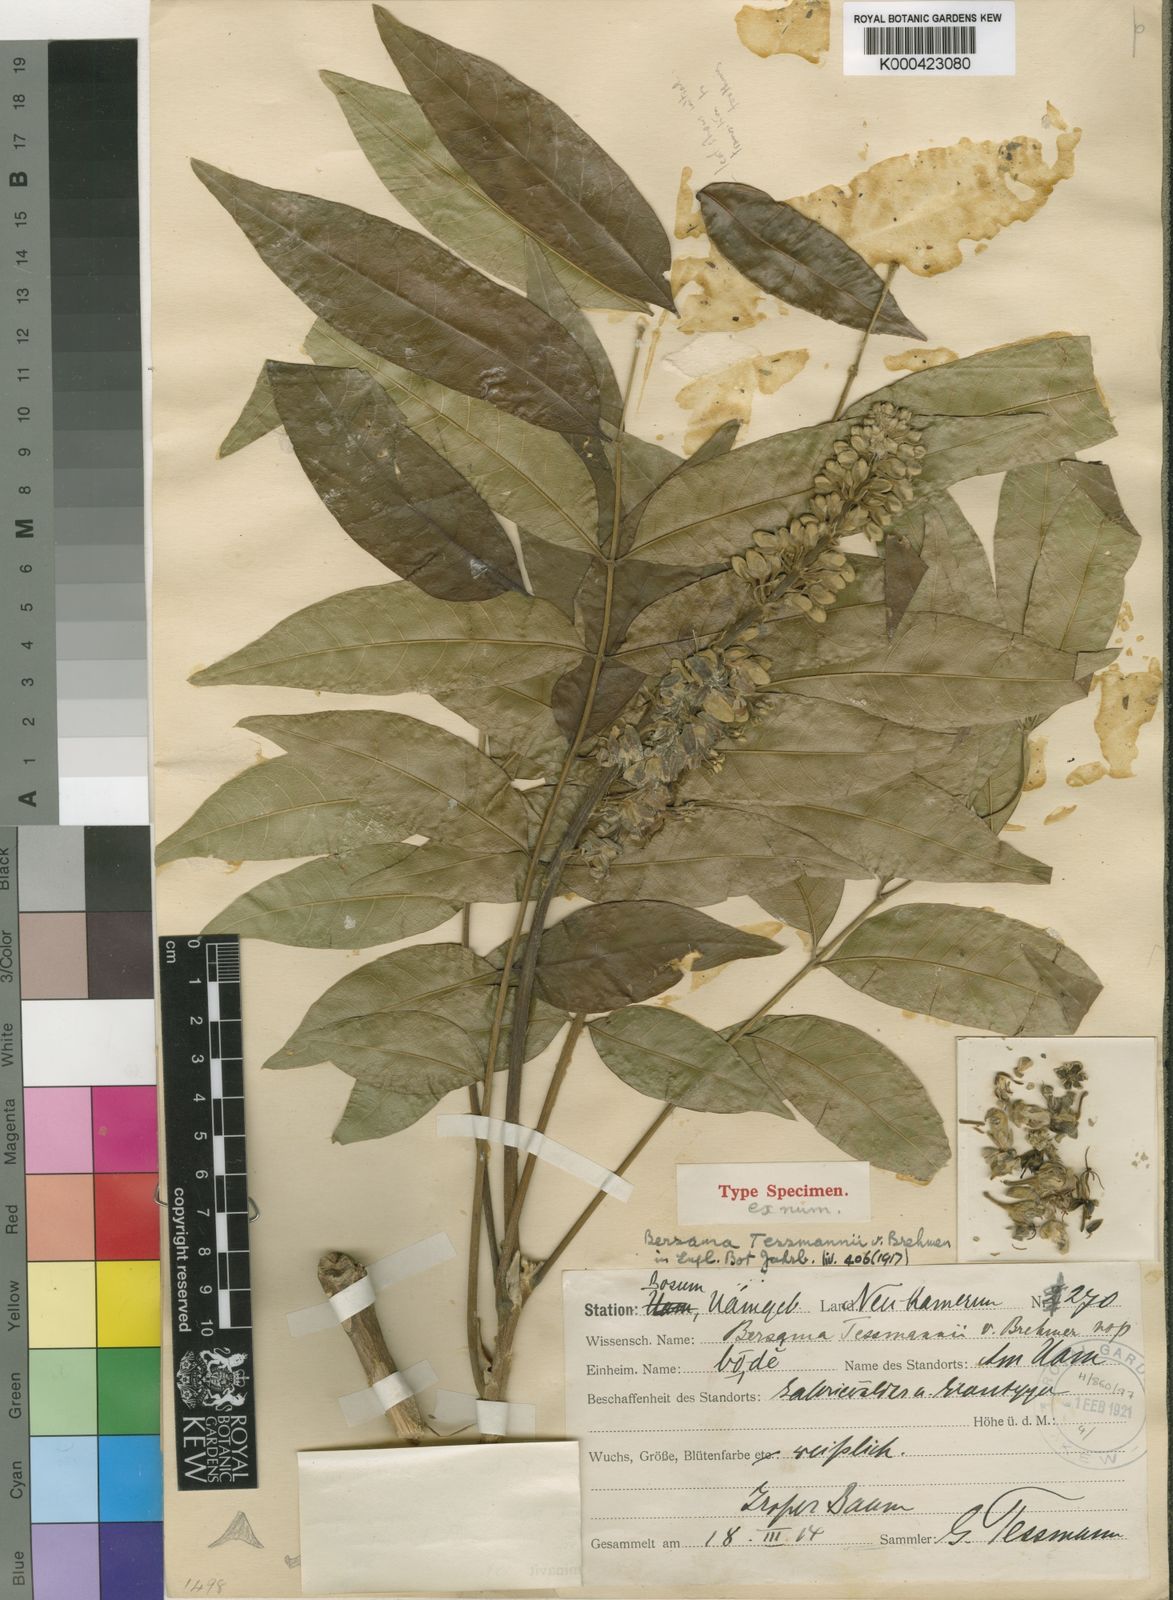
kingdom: Plantae
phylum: Tracheophyta
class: Magnoliopsida
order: Geraniales
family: Melianthaceae
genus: Bersama
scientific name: Bersama abyssinica
